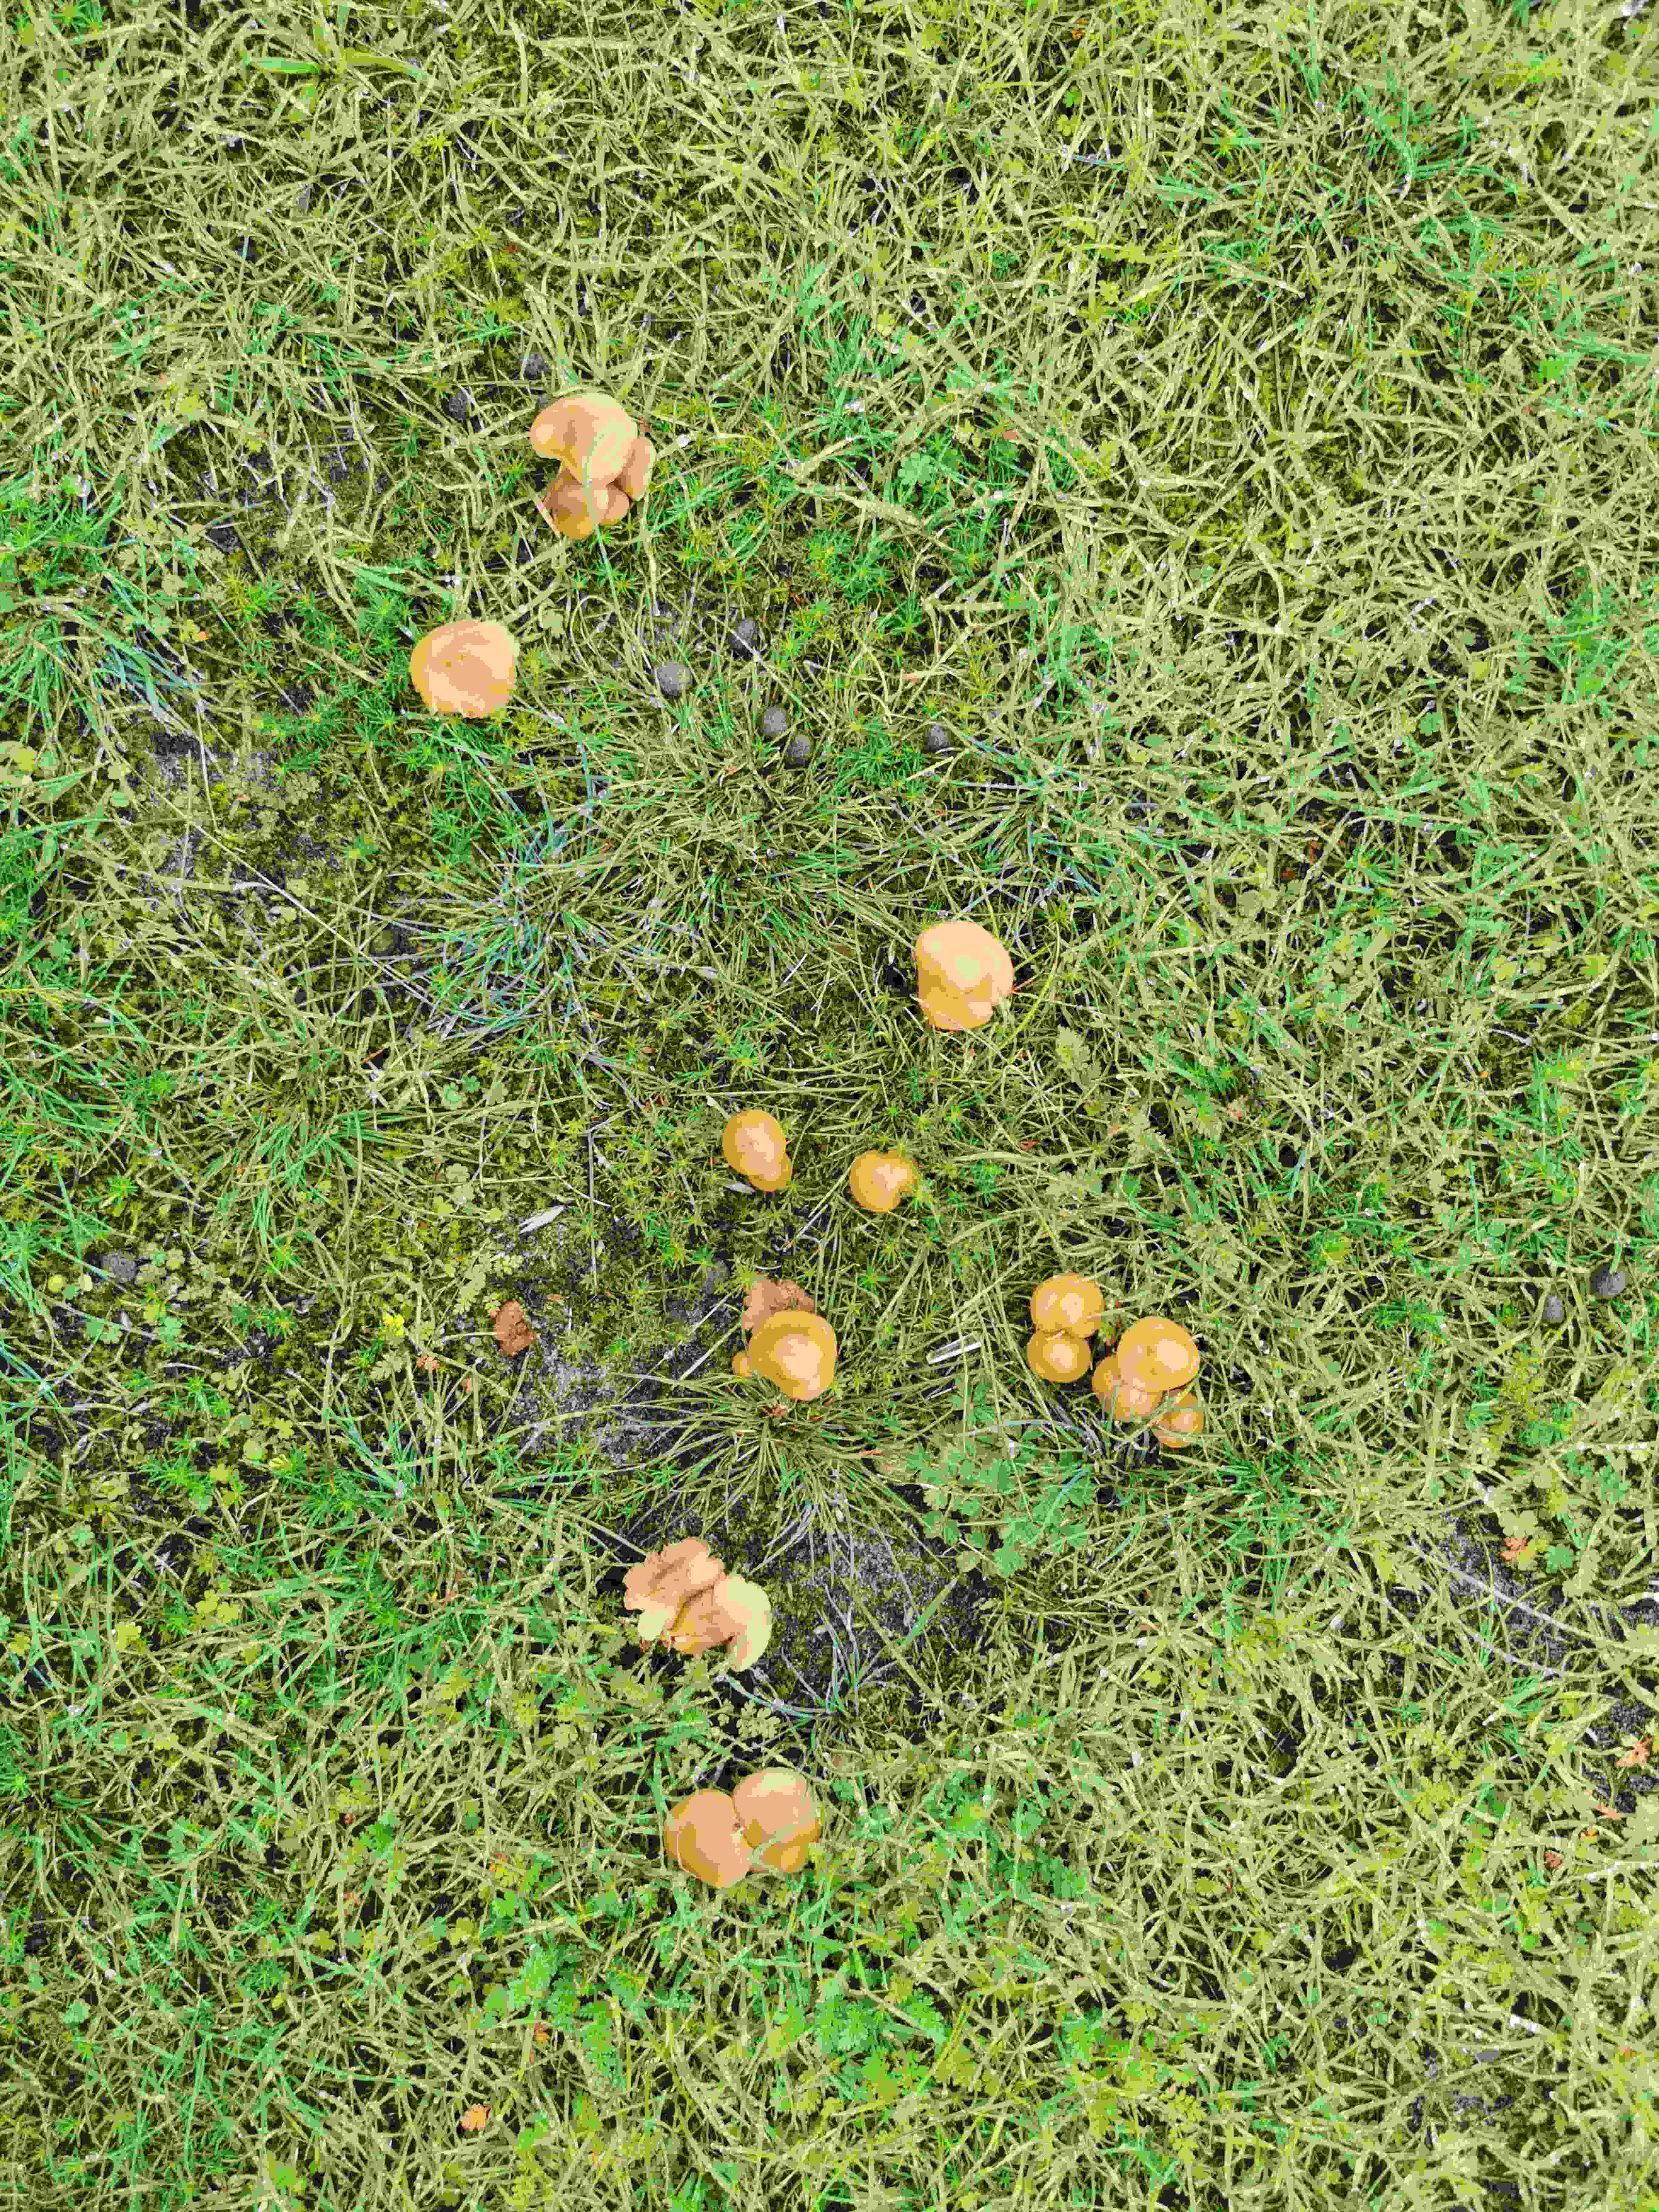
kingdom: Fungi
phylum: Basidiomycota
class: Agaricomycetes
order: Agaricales
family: Marasmiaceae
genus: Marasmius
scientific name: Marasmius oreades
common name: elledans-bruskhat
